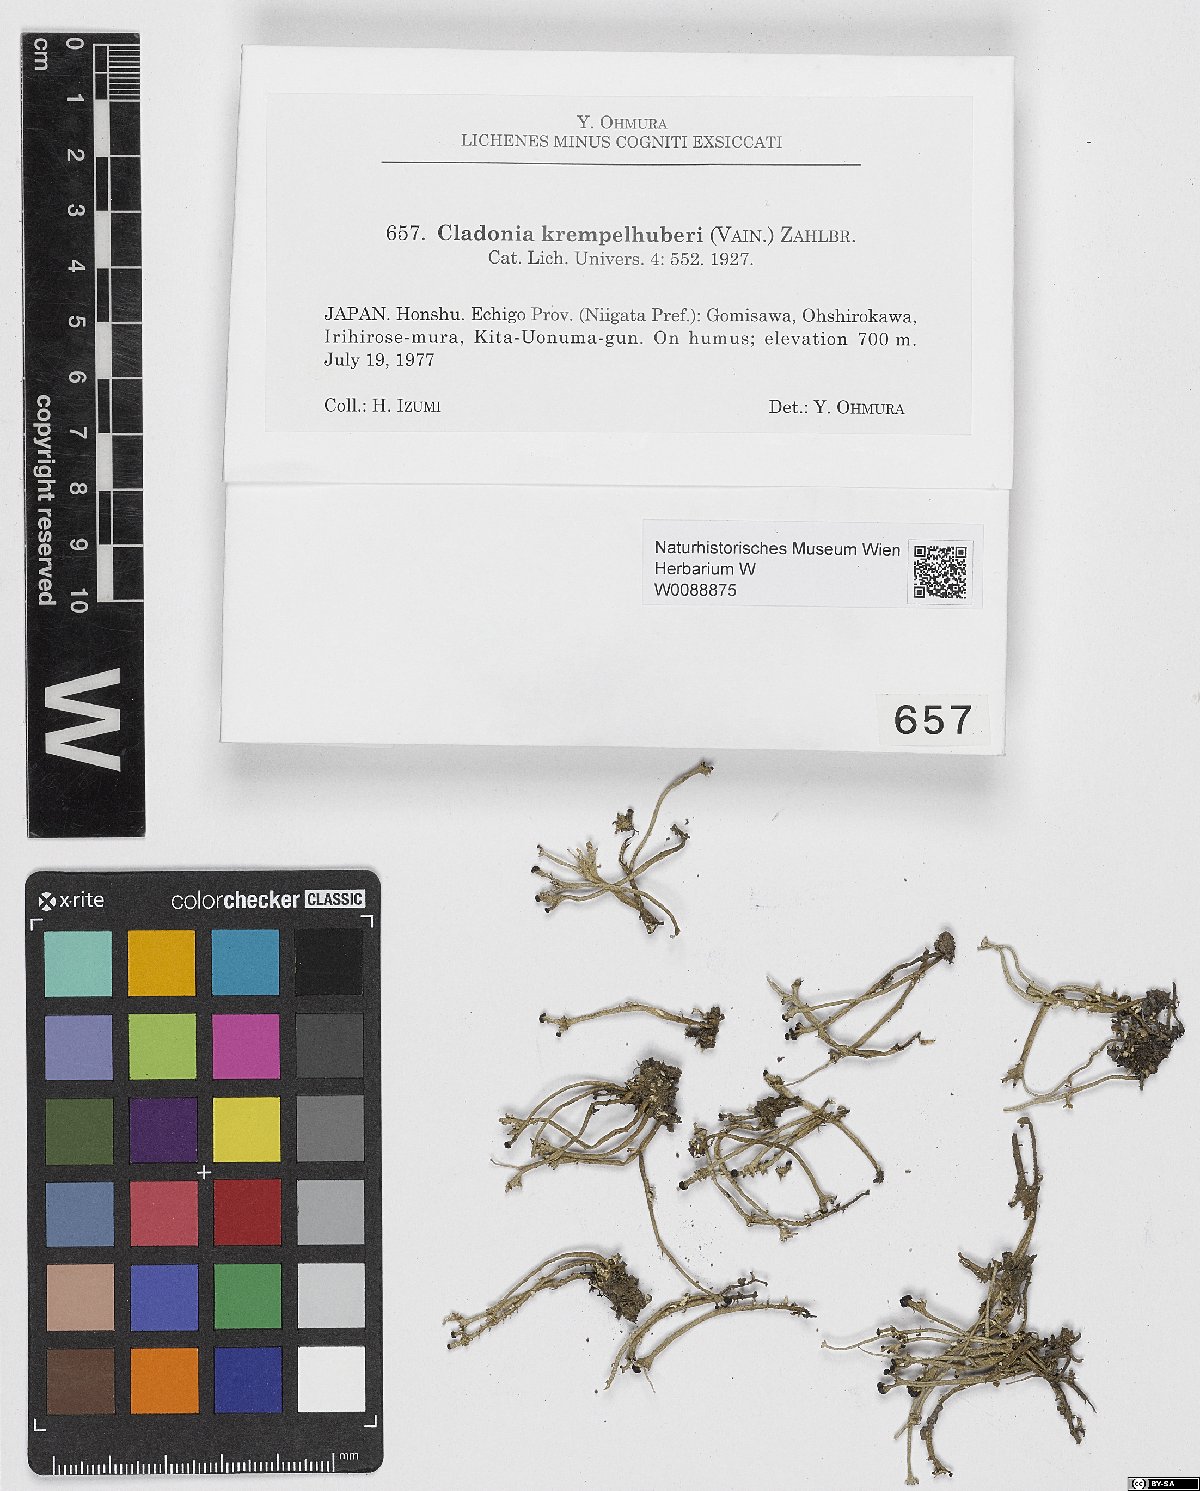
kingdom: Fungi
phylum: Ascomycota
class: Lecanoromycetes
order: Lecanorales
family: Cladoniaceae
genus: Cladonia
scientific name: Cladonia krempelhuberi
